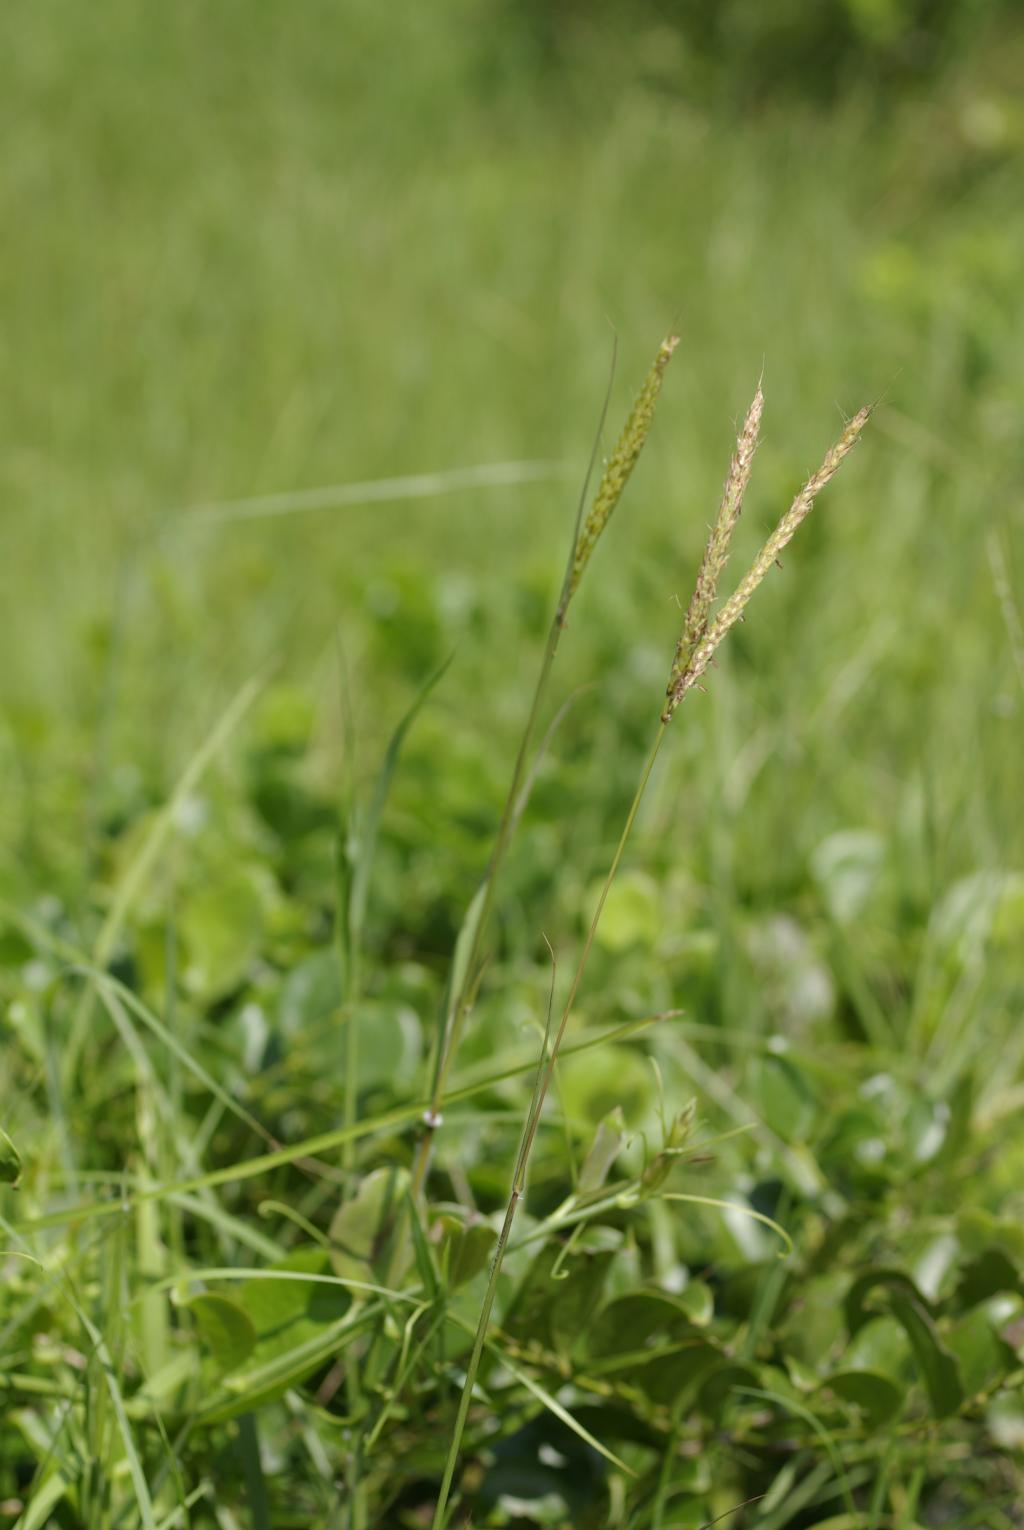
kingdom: Plantae
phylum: Tracheophyta
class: Liliopsida
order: Poales
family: Poaceae
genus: Polytrias
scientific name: Polytrias indica
